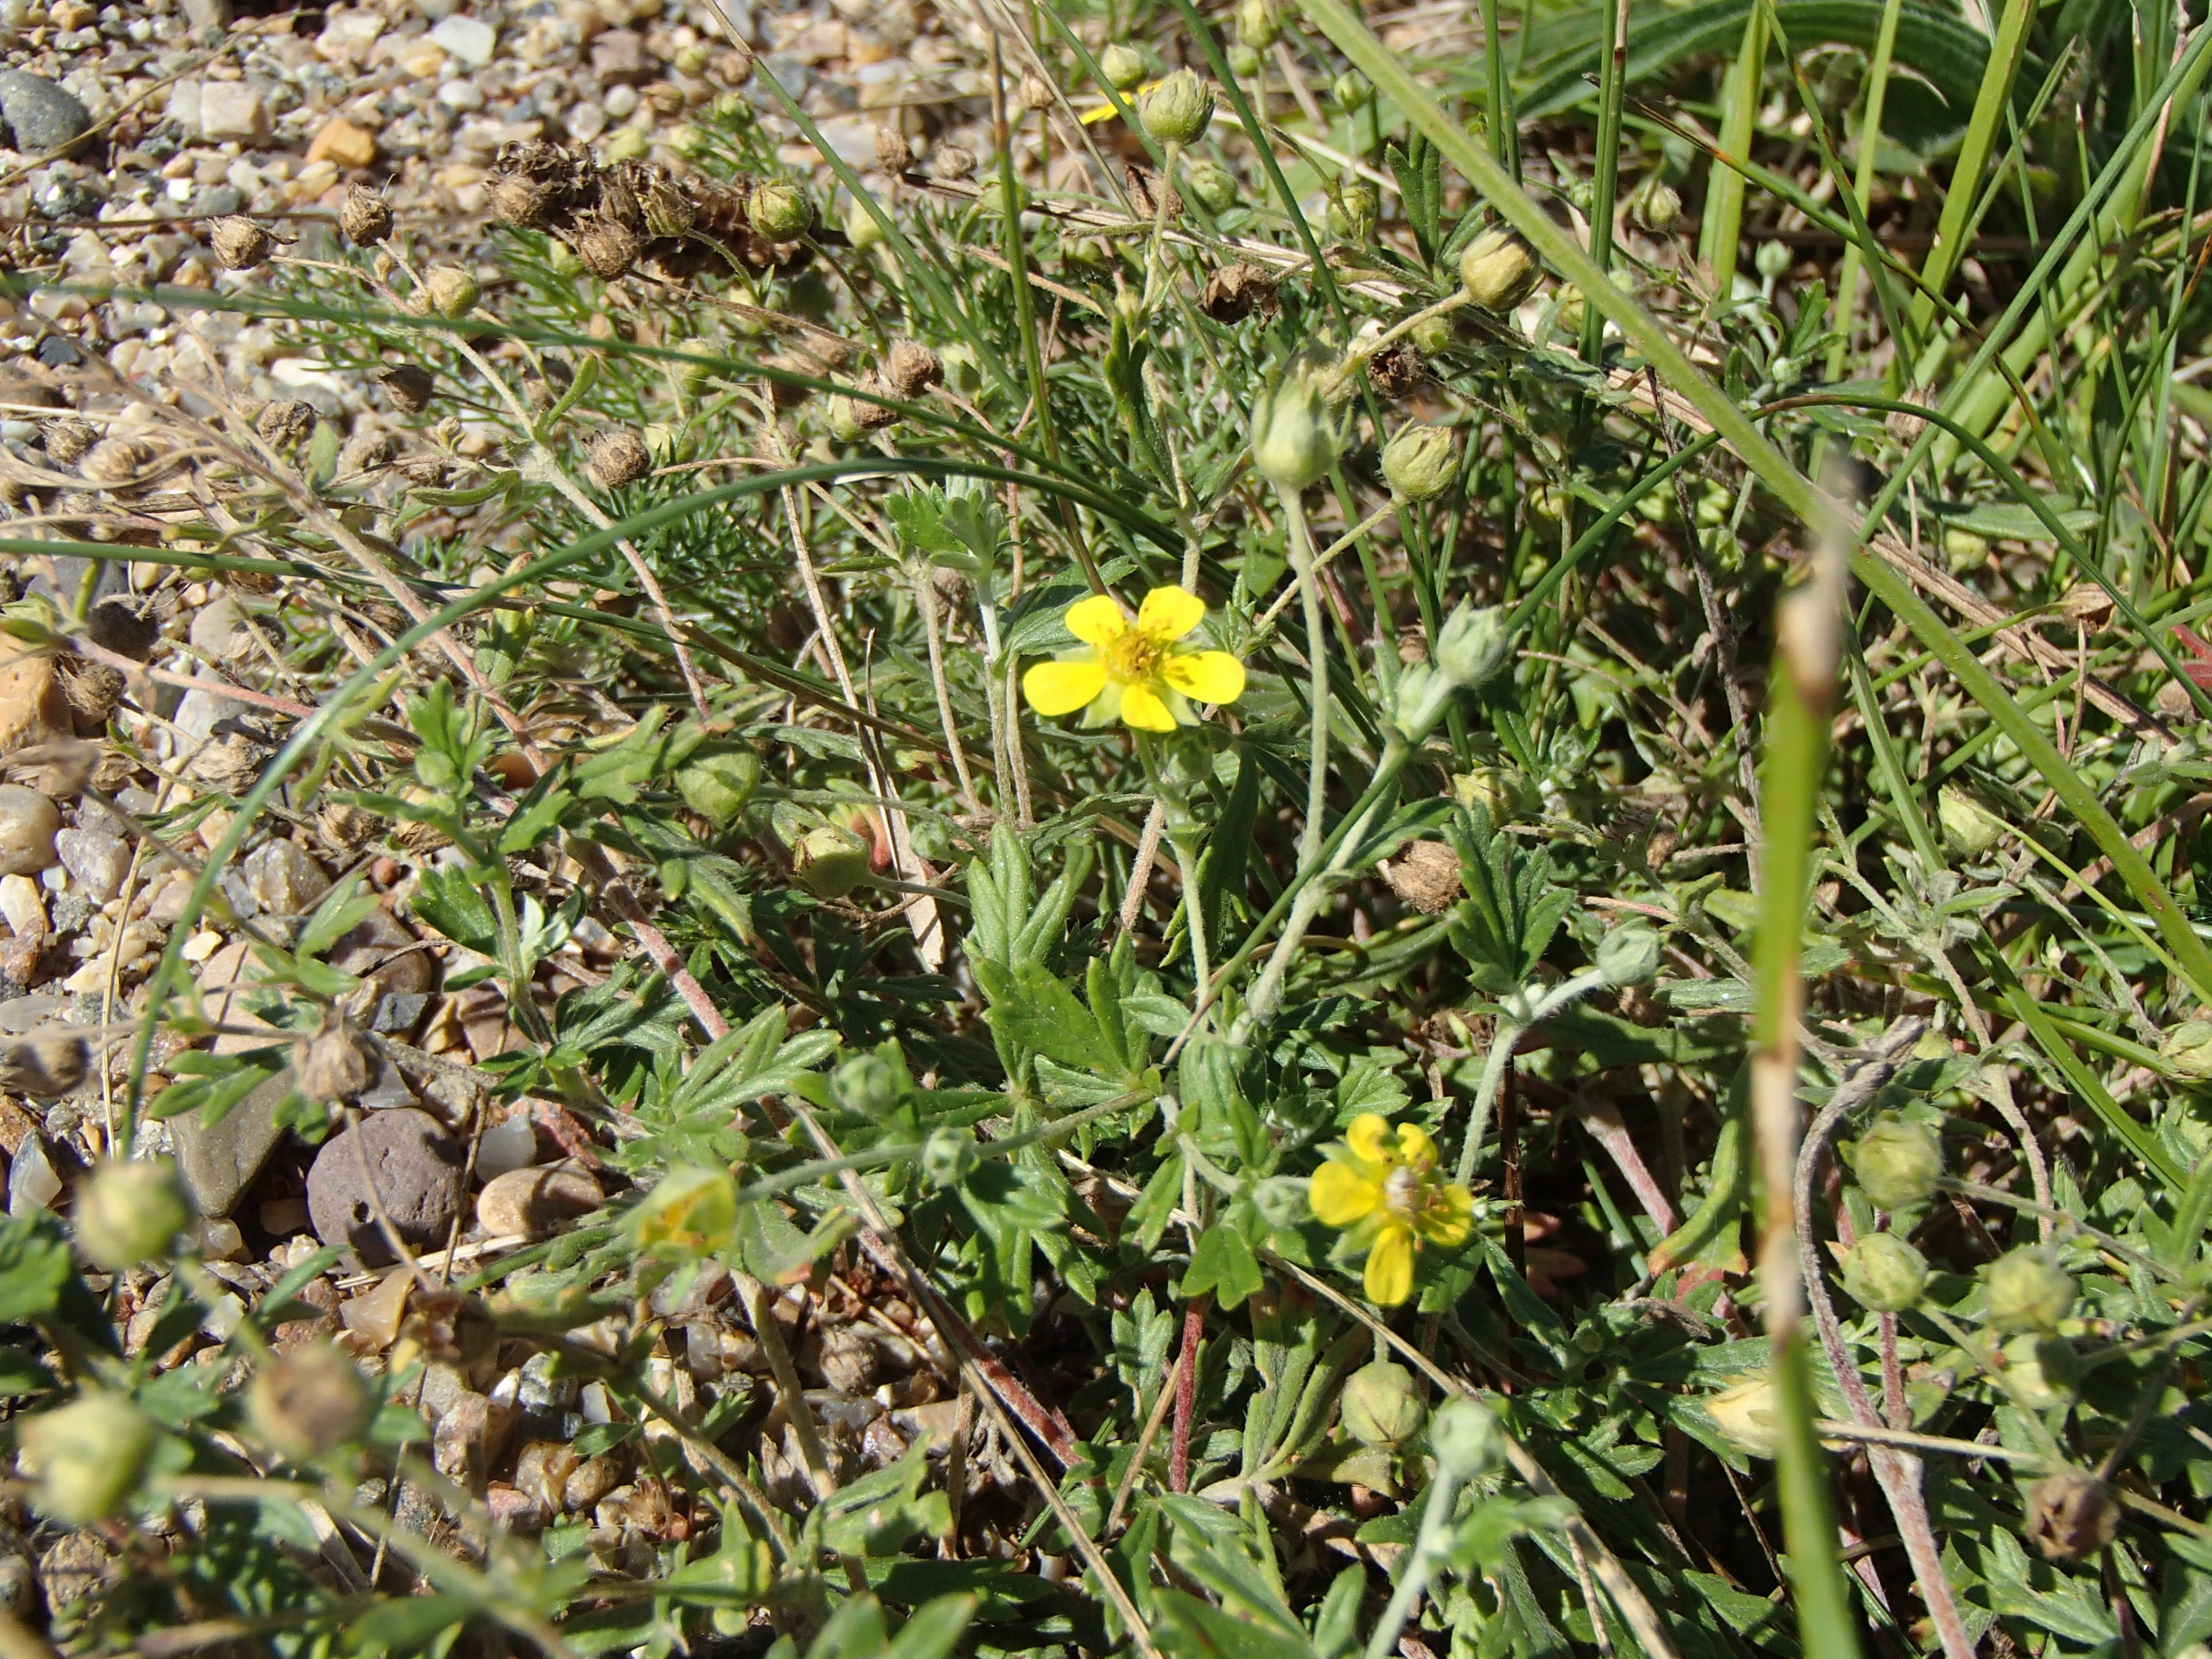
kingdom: Plantae
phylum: Tracheophyta
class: Magnoliopsida
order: Rosales
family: Rosaceae
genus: Potentilla
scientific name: Potentilla argentea
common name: Sølv-potentil
